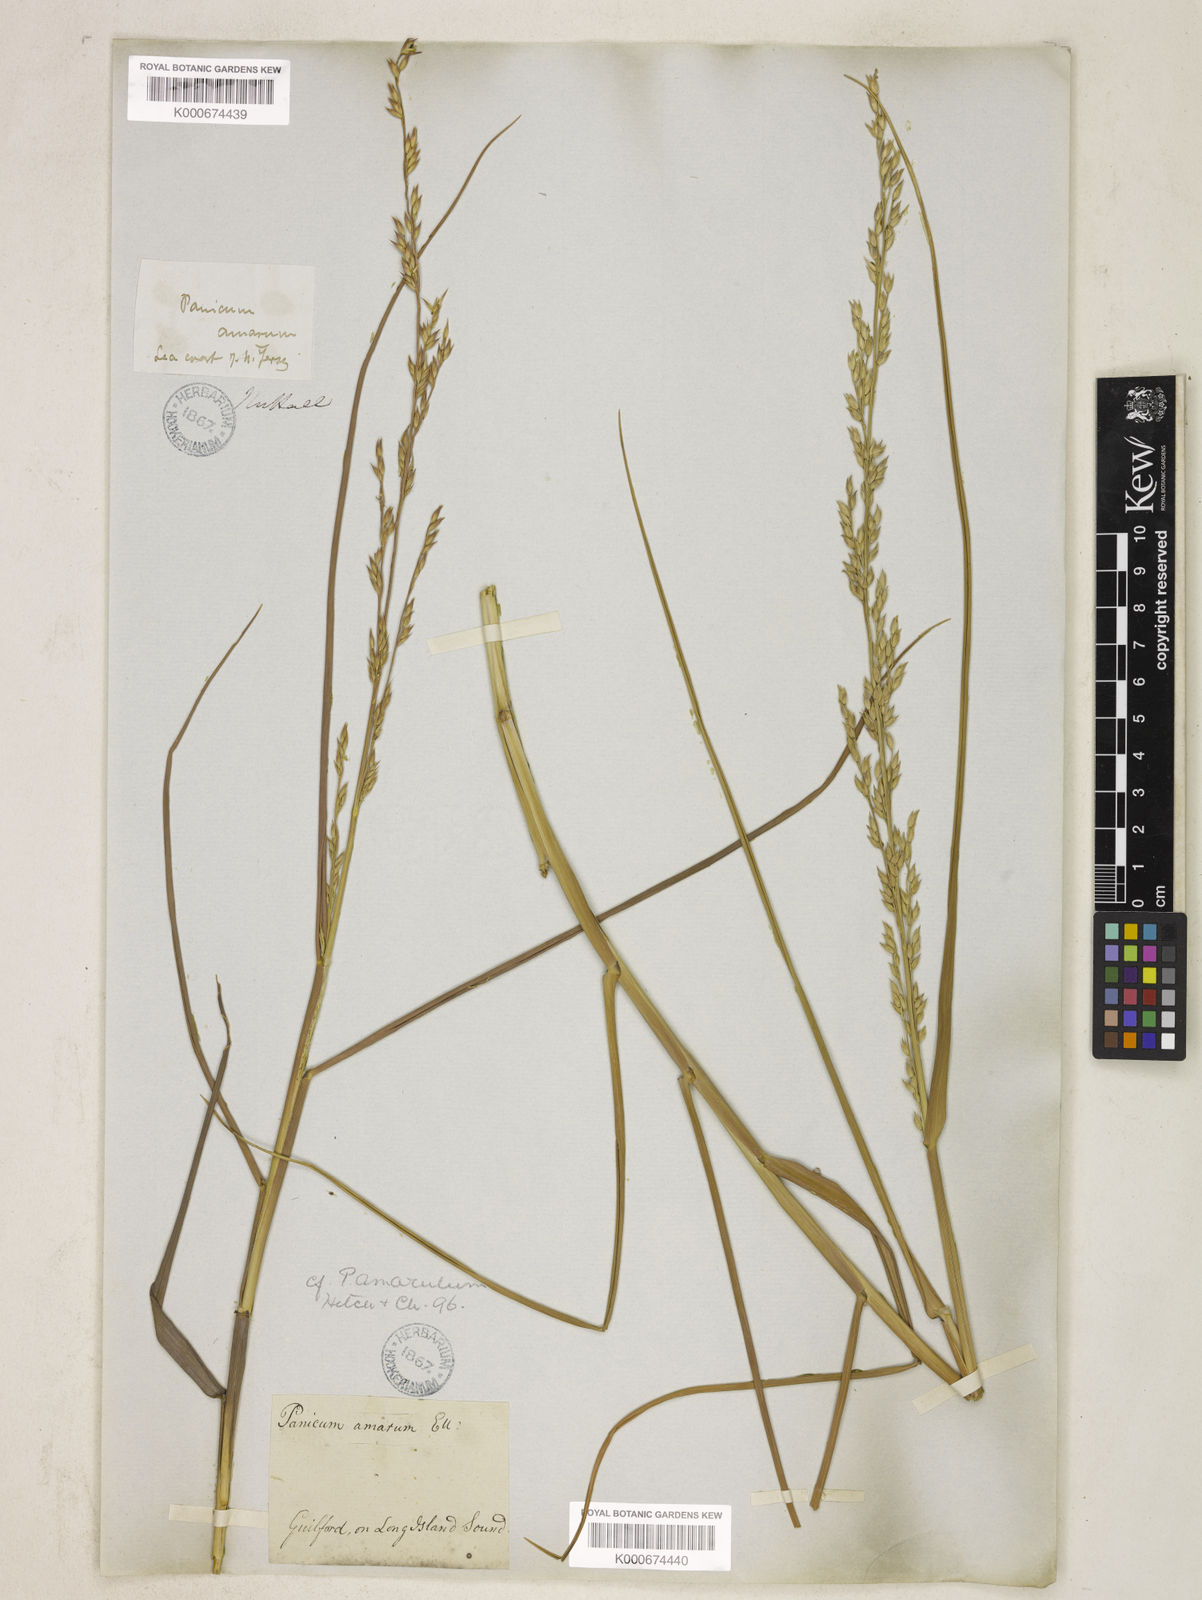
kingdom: Plantae
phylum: Tracheophyta
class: Liliopsida
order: Poales
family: Poaceae
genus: Panicum
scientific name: Panicum amarum
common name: Bitter panicum
